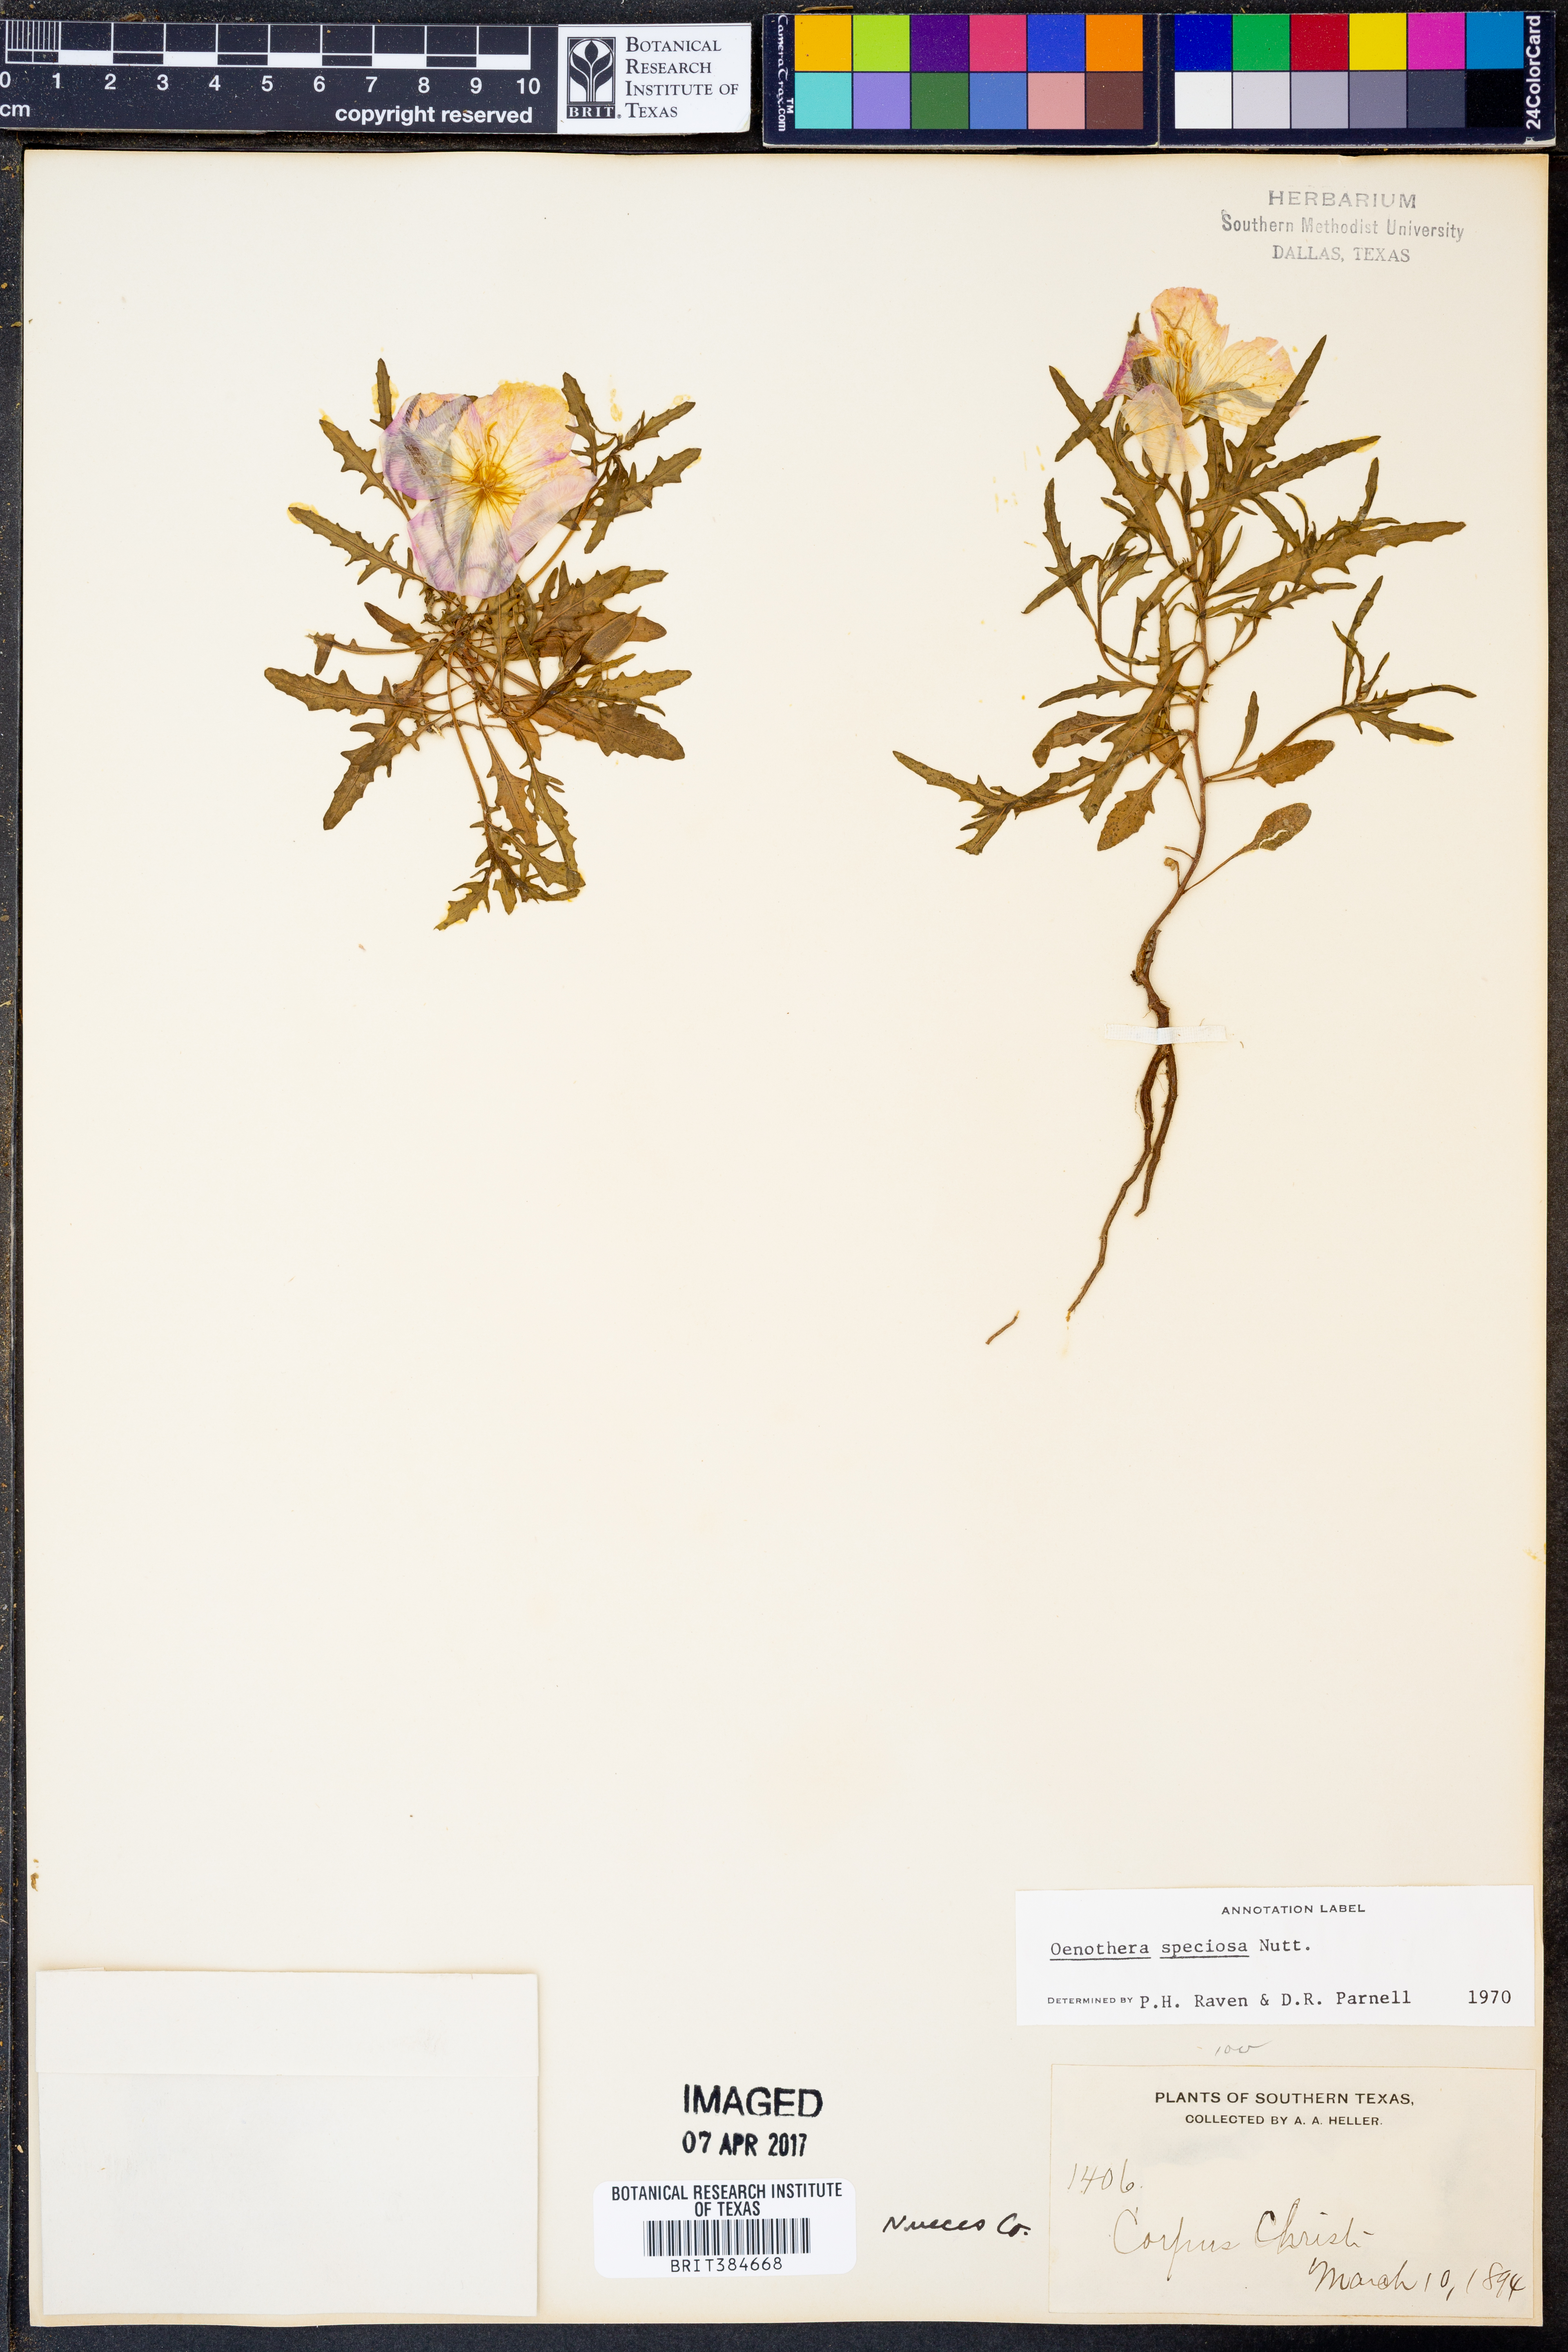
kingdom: Plantae
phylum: Tracheophyta
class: Magnoliopsida
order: Myrtales
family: Onagraceae
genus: Oenothera
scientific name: Oenothera speciosa
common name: White evening-primrose
